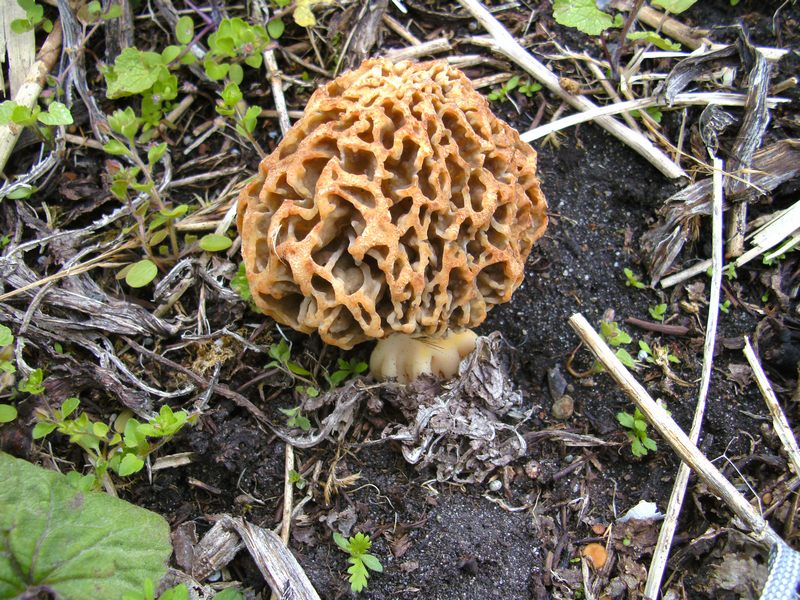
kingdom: Fungi
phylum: Ascomycota
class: Pezizomycetes
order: Pezizales
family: Morchellaceae
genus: Morchella
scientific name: Morchella esculenta
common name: spiselig morkel
